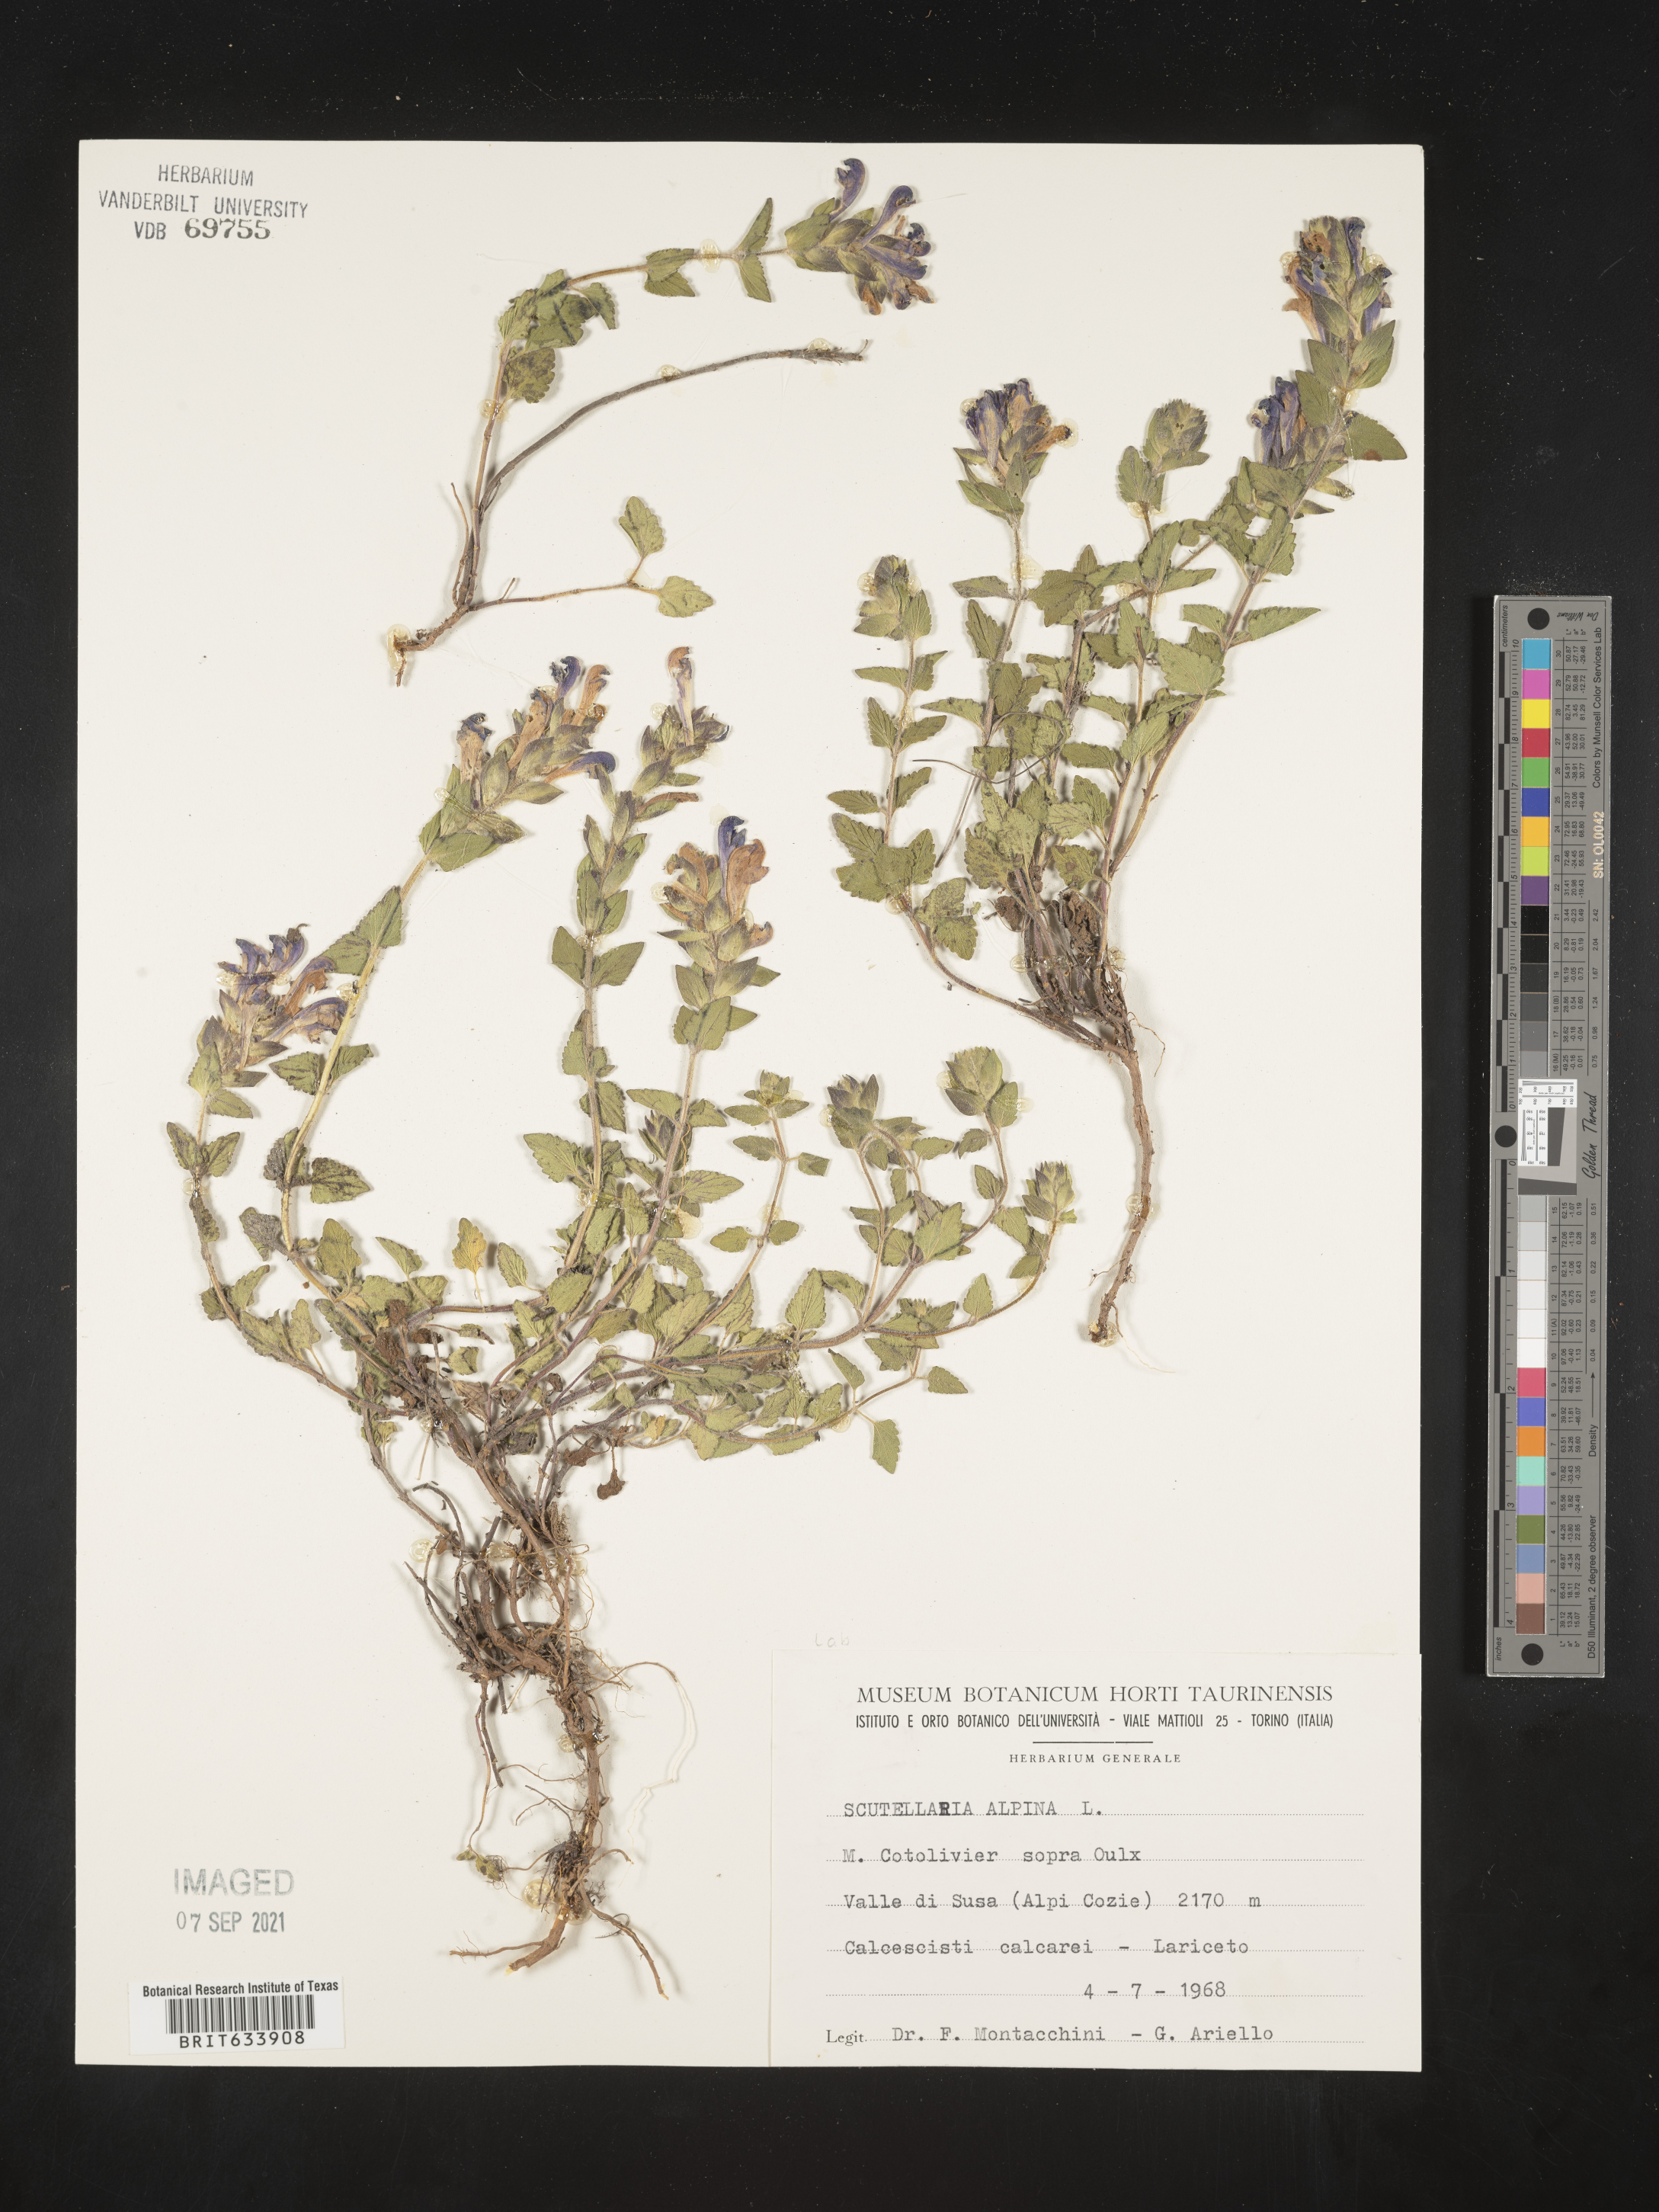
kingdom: Plantae
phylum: Tracheophyta
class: Magnoliopsida
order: Lamiales
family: Lamiaceae
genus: Scutellaria
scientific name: Scutellaria
